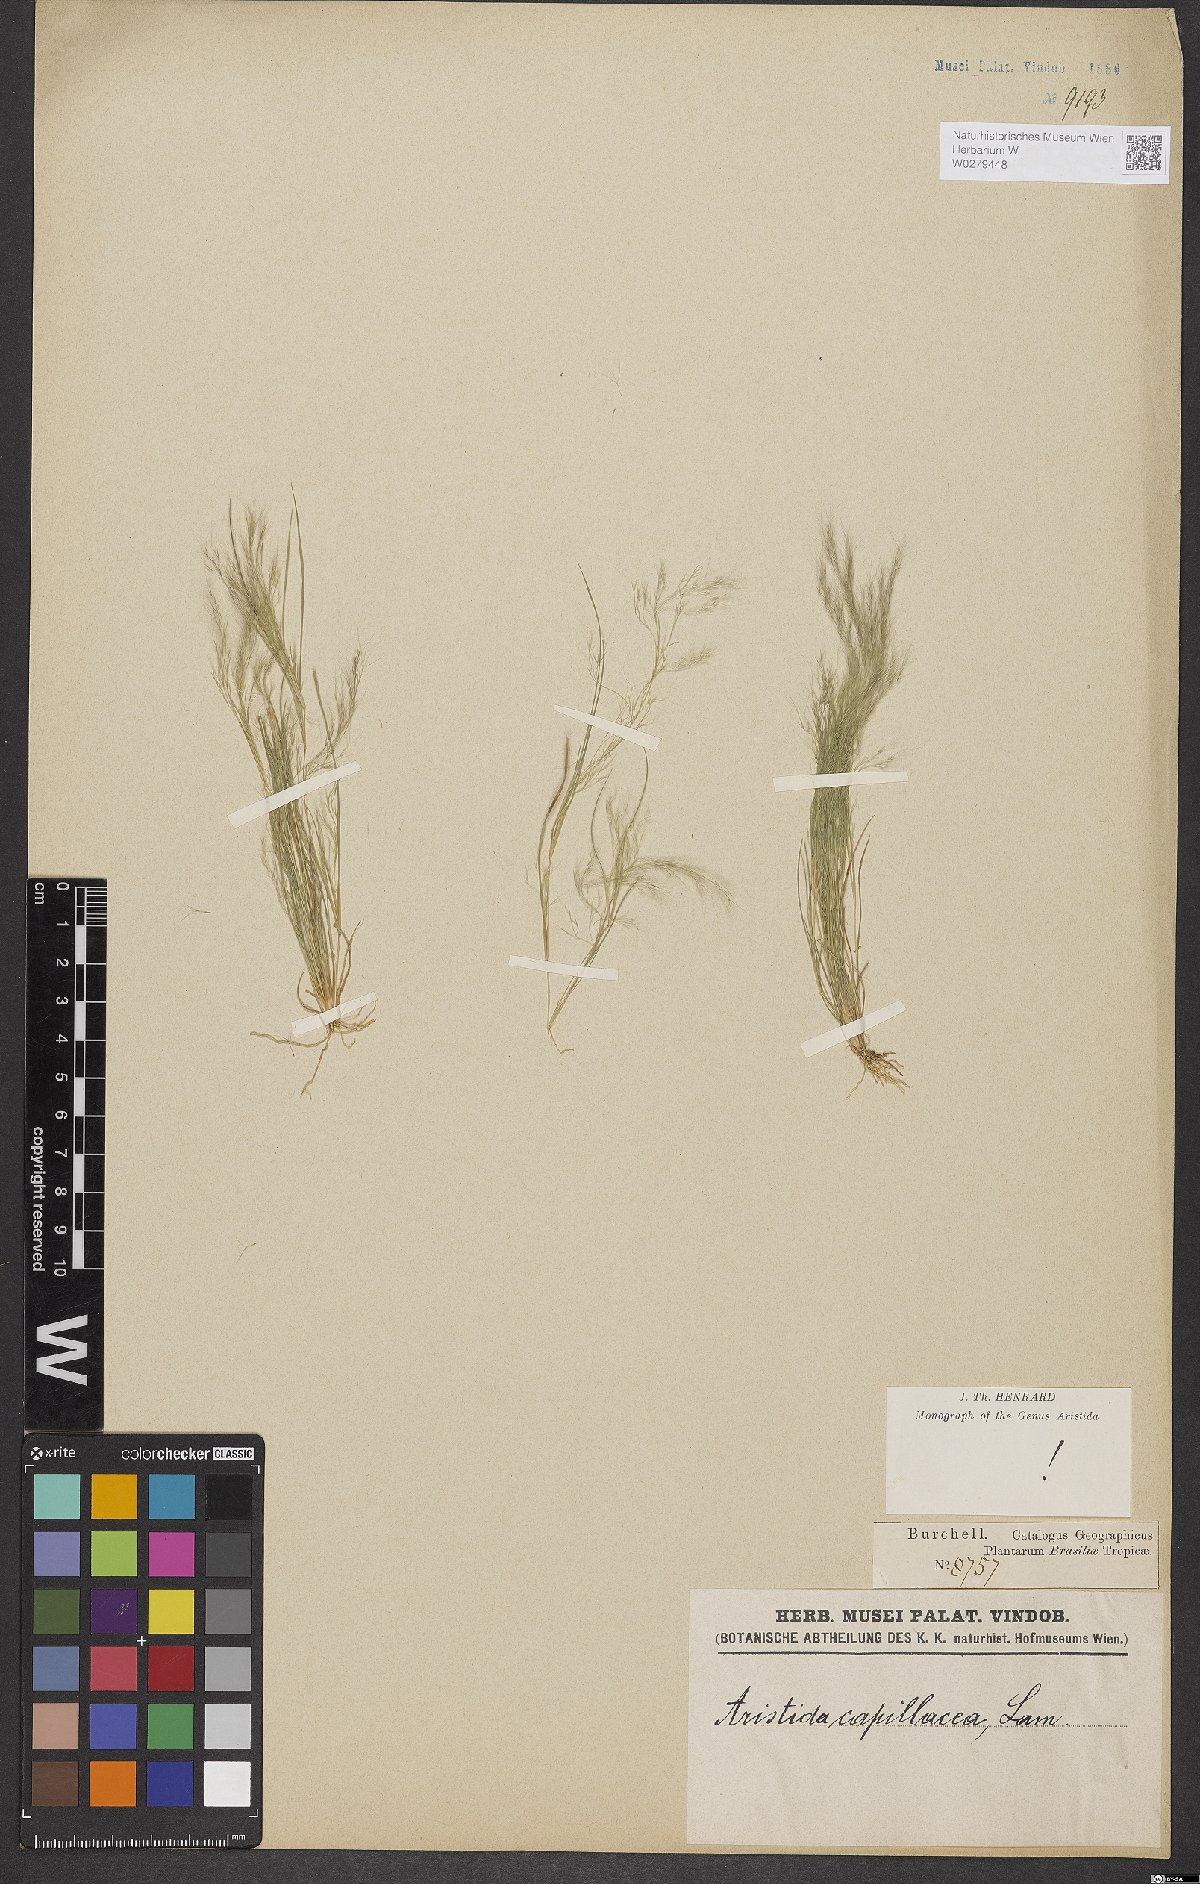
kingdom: Plantae
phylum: Tracheophyta
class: Liliopsida
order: Poales
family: Poaceae
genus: Aristida
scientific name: Aristida capillacea
